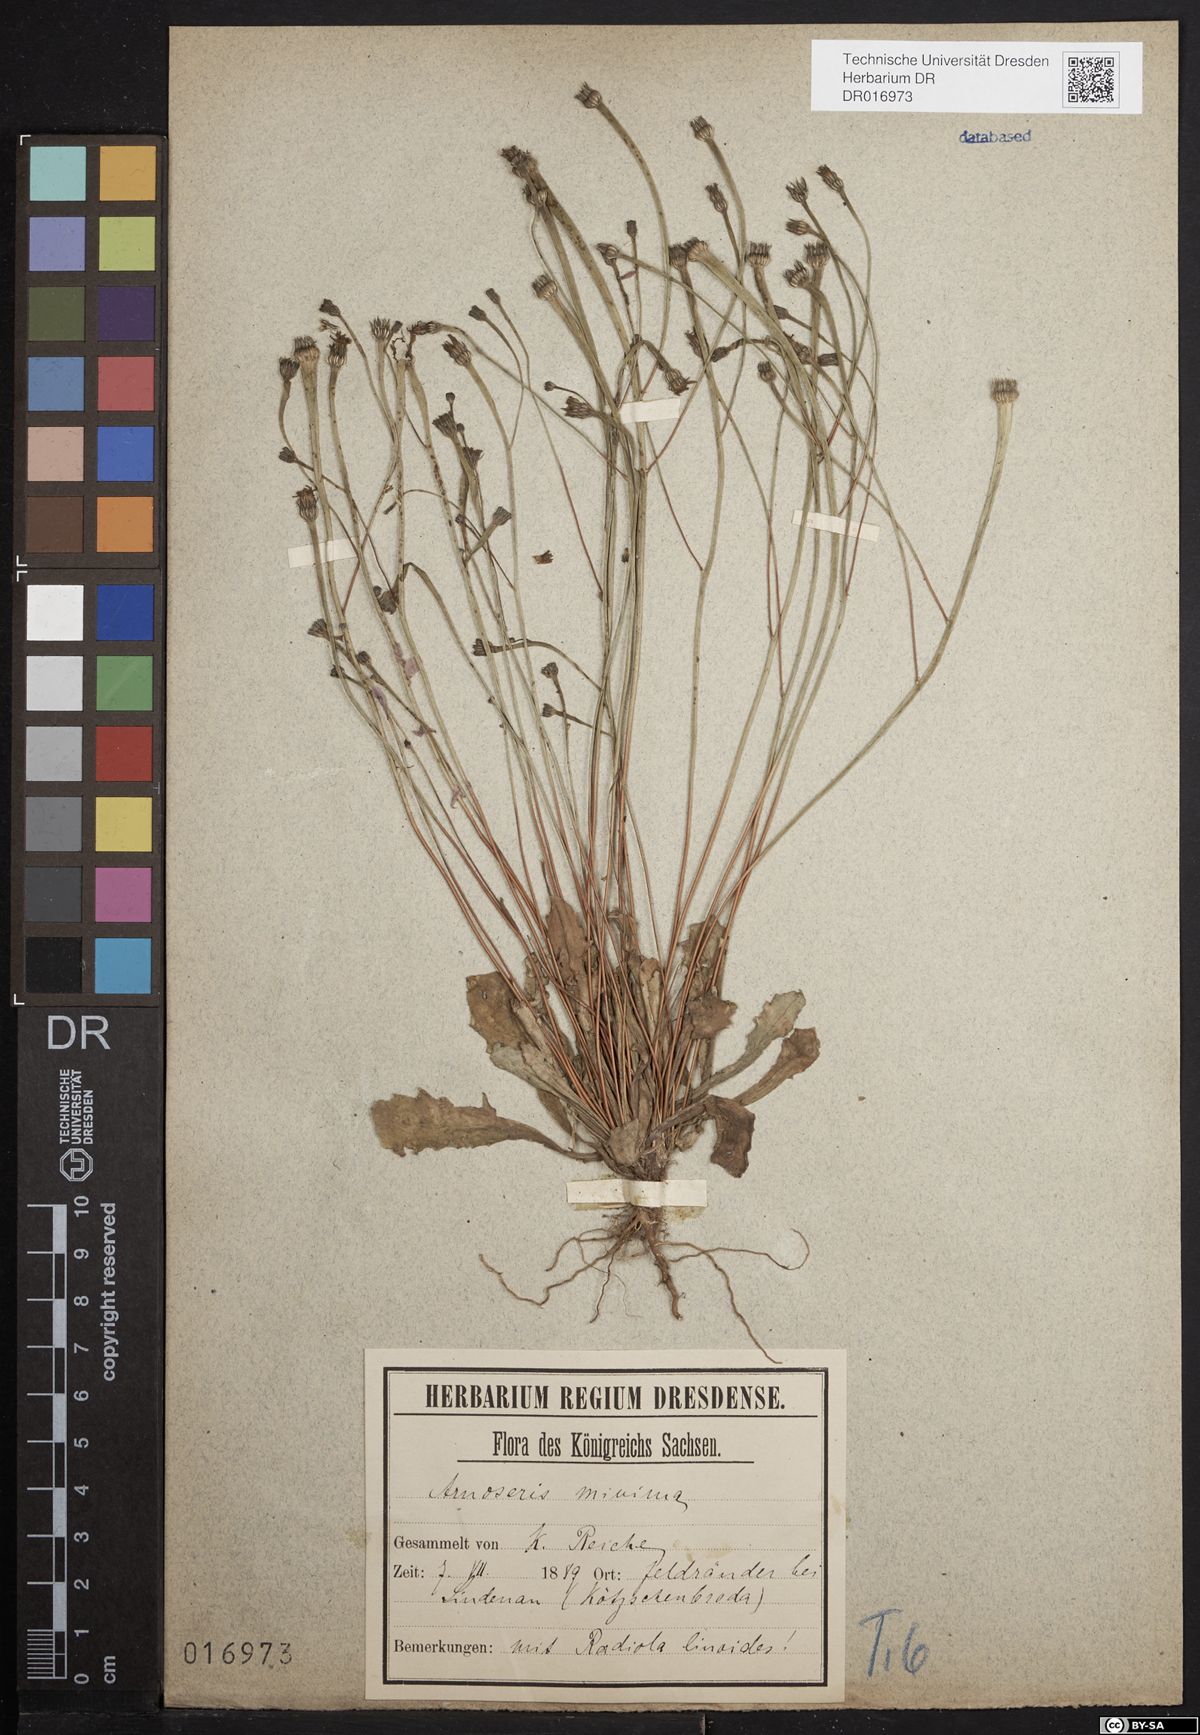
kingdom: Plantae
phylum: Tracheophyta
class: Magnoliopsida
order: Asterales
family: Asteraceae
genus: Arnoseris
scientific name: Arnoseris minima
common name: Lamb's succory
